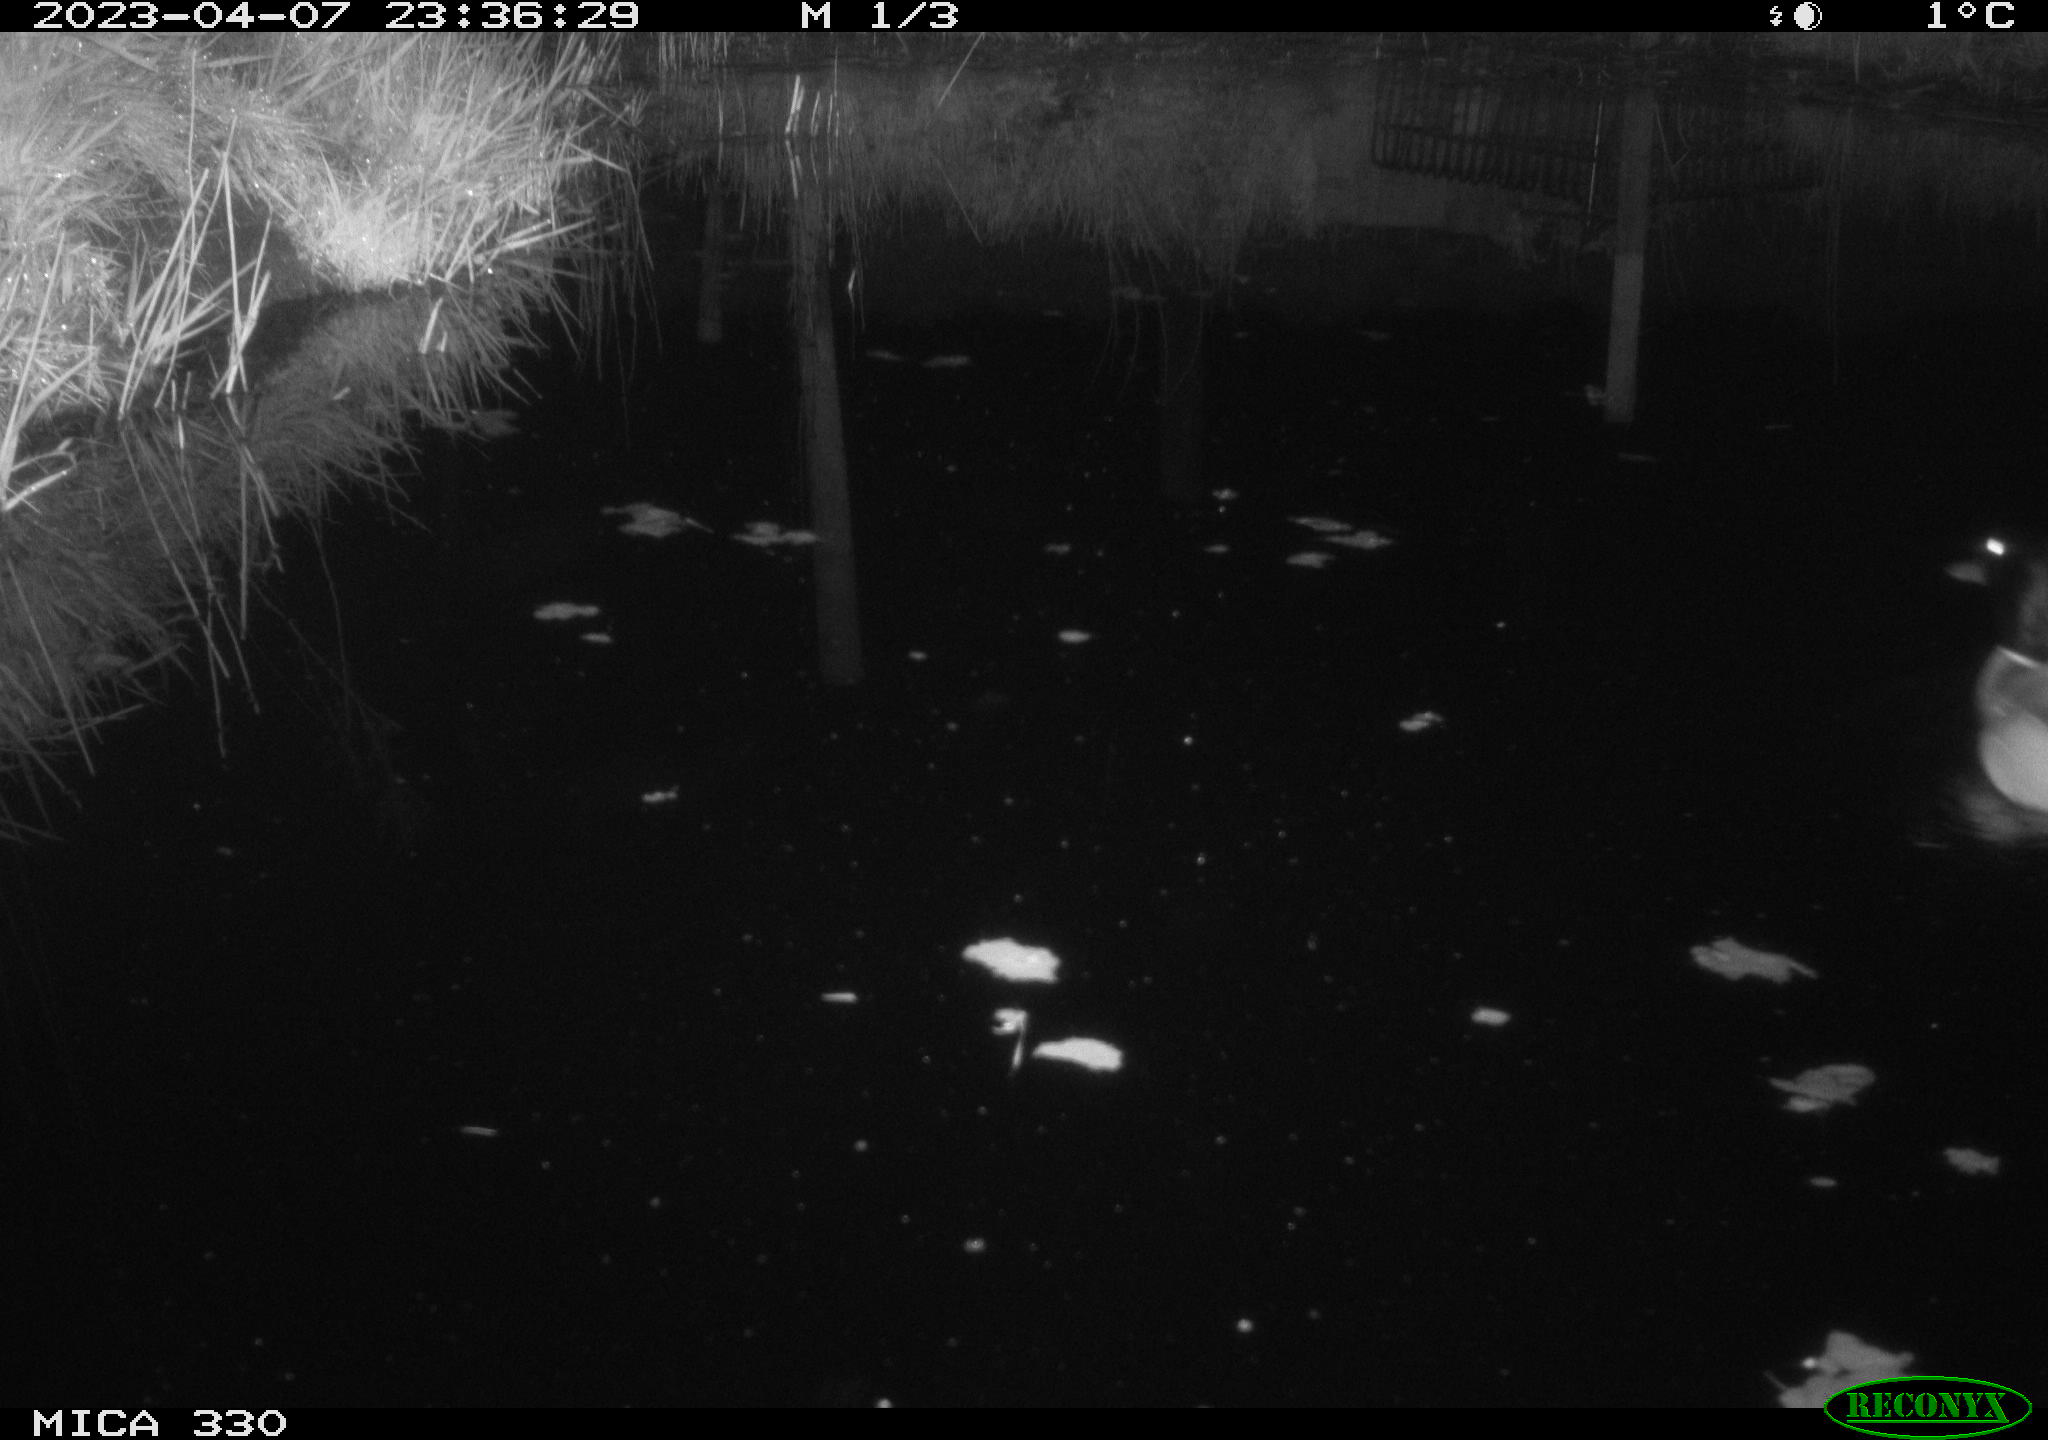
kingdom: Animalia
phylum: Chordata
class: Aves
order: Anseriformes
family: Anatidae
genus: Anas
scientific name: Anas
